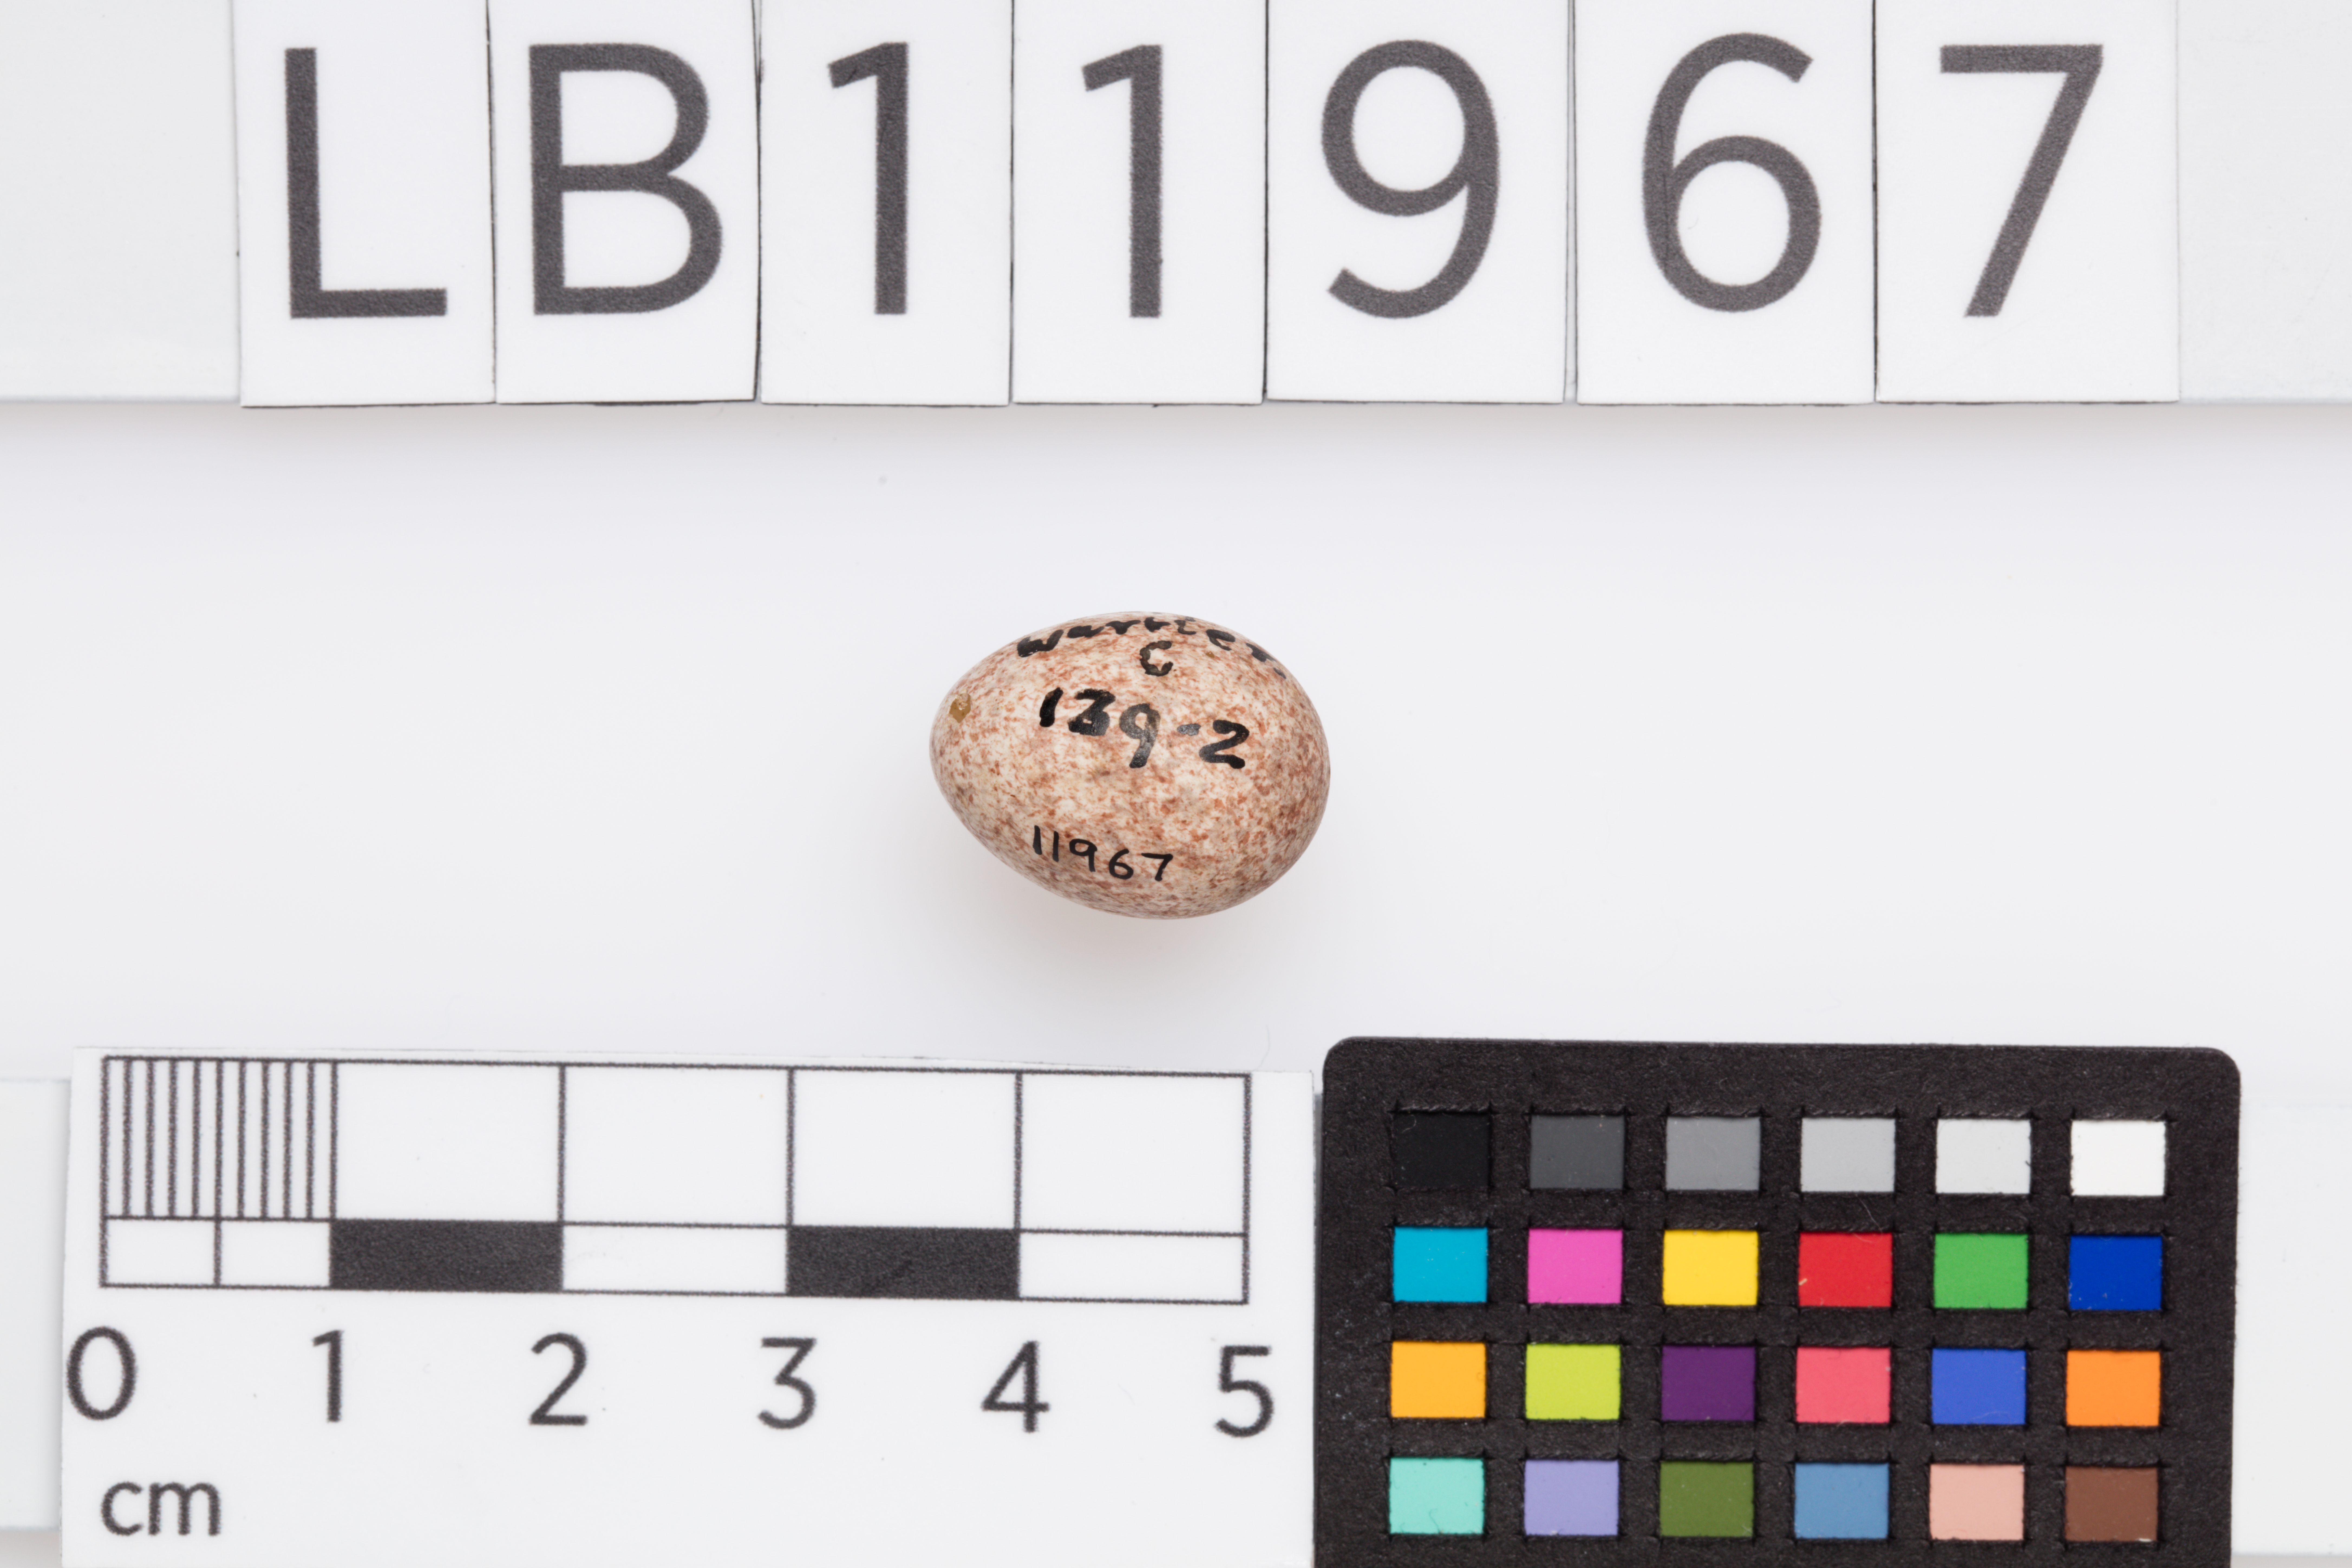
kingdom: Animalia
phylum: Chordata
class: Aves
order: Passeriformes
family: Locustellidae
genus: Locustella
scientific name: Locustella naevia
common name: Common grasshopper warbler
